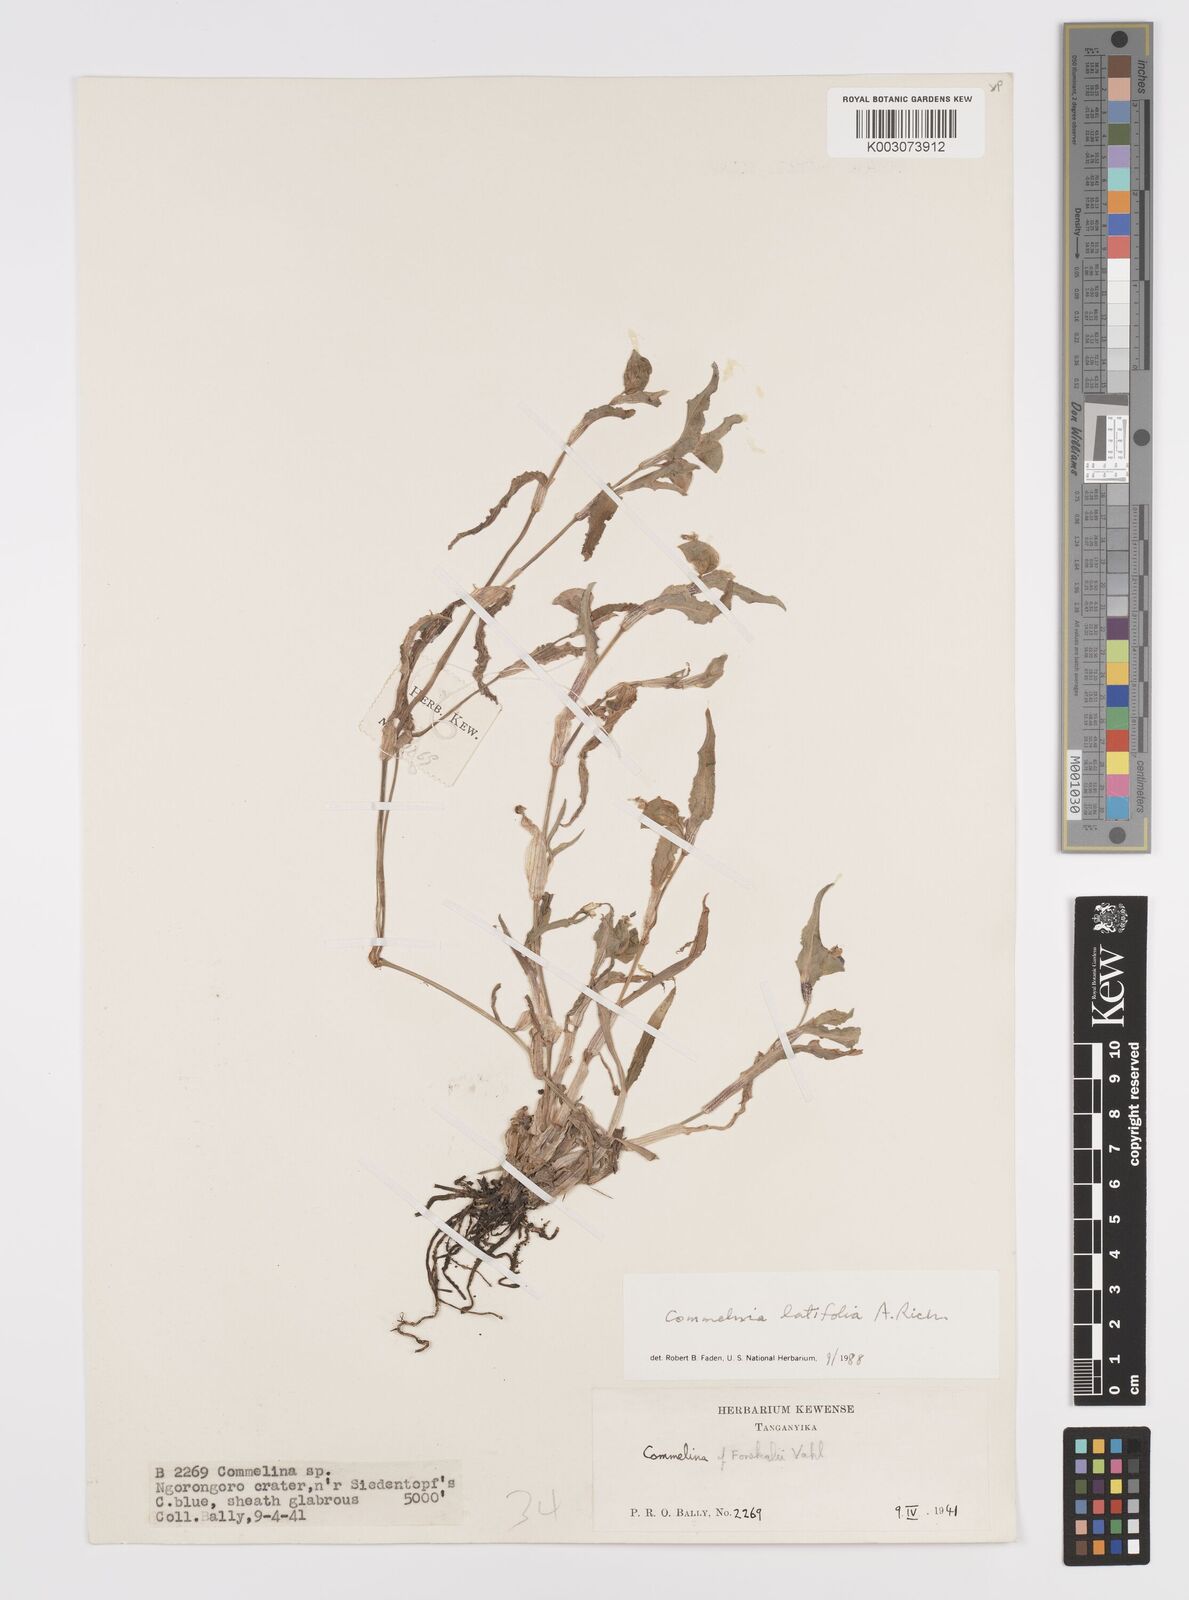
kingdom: Plantae
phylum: Tracheophyta
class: Liliopsida
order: Commelinales
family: Commelinaceae
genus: Commelina
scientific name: Commelina latifolia
